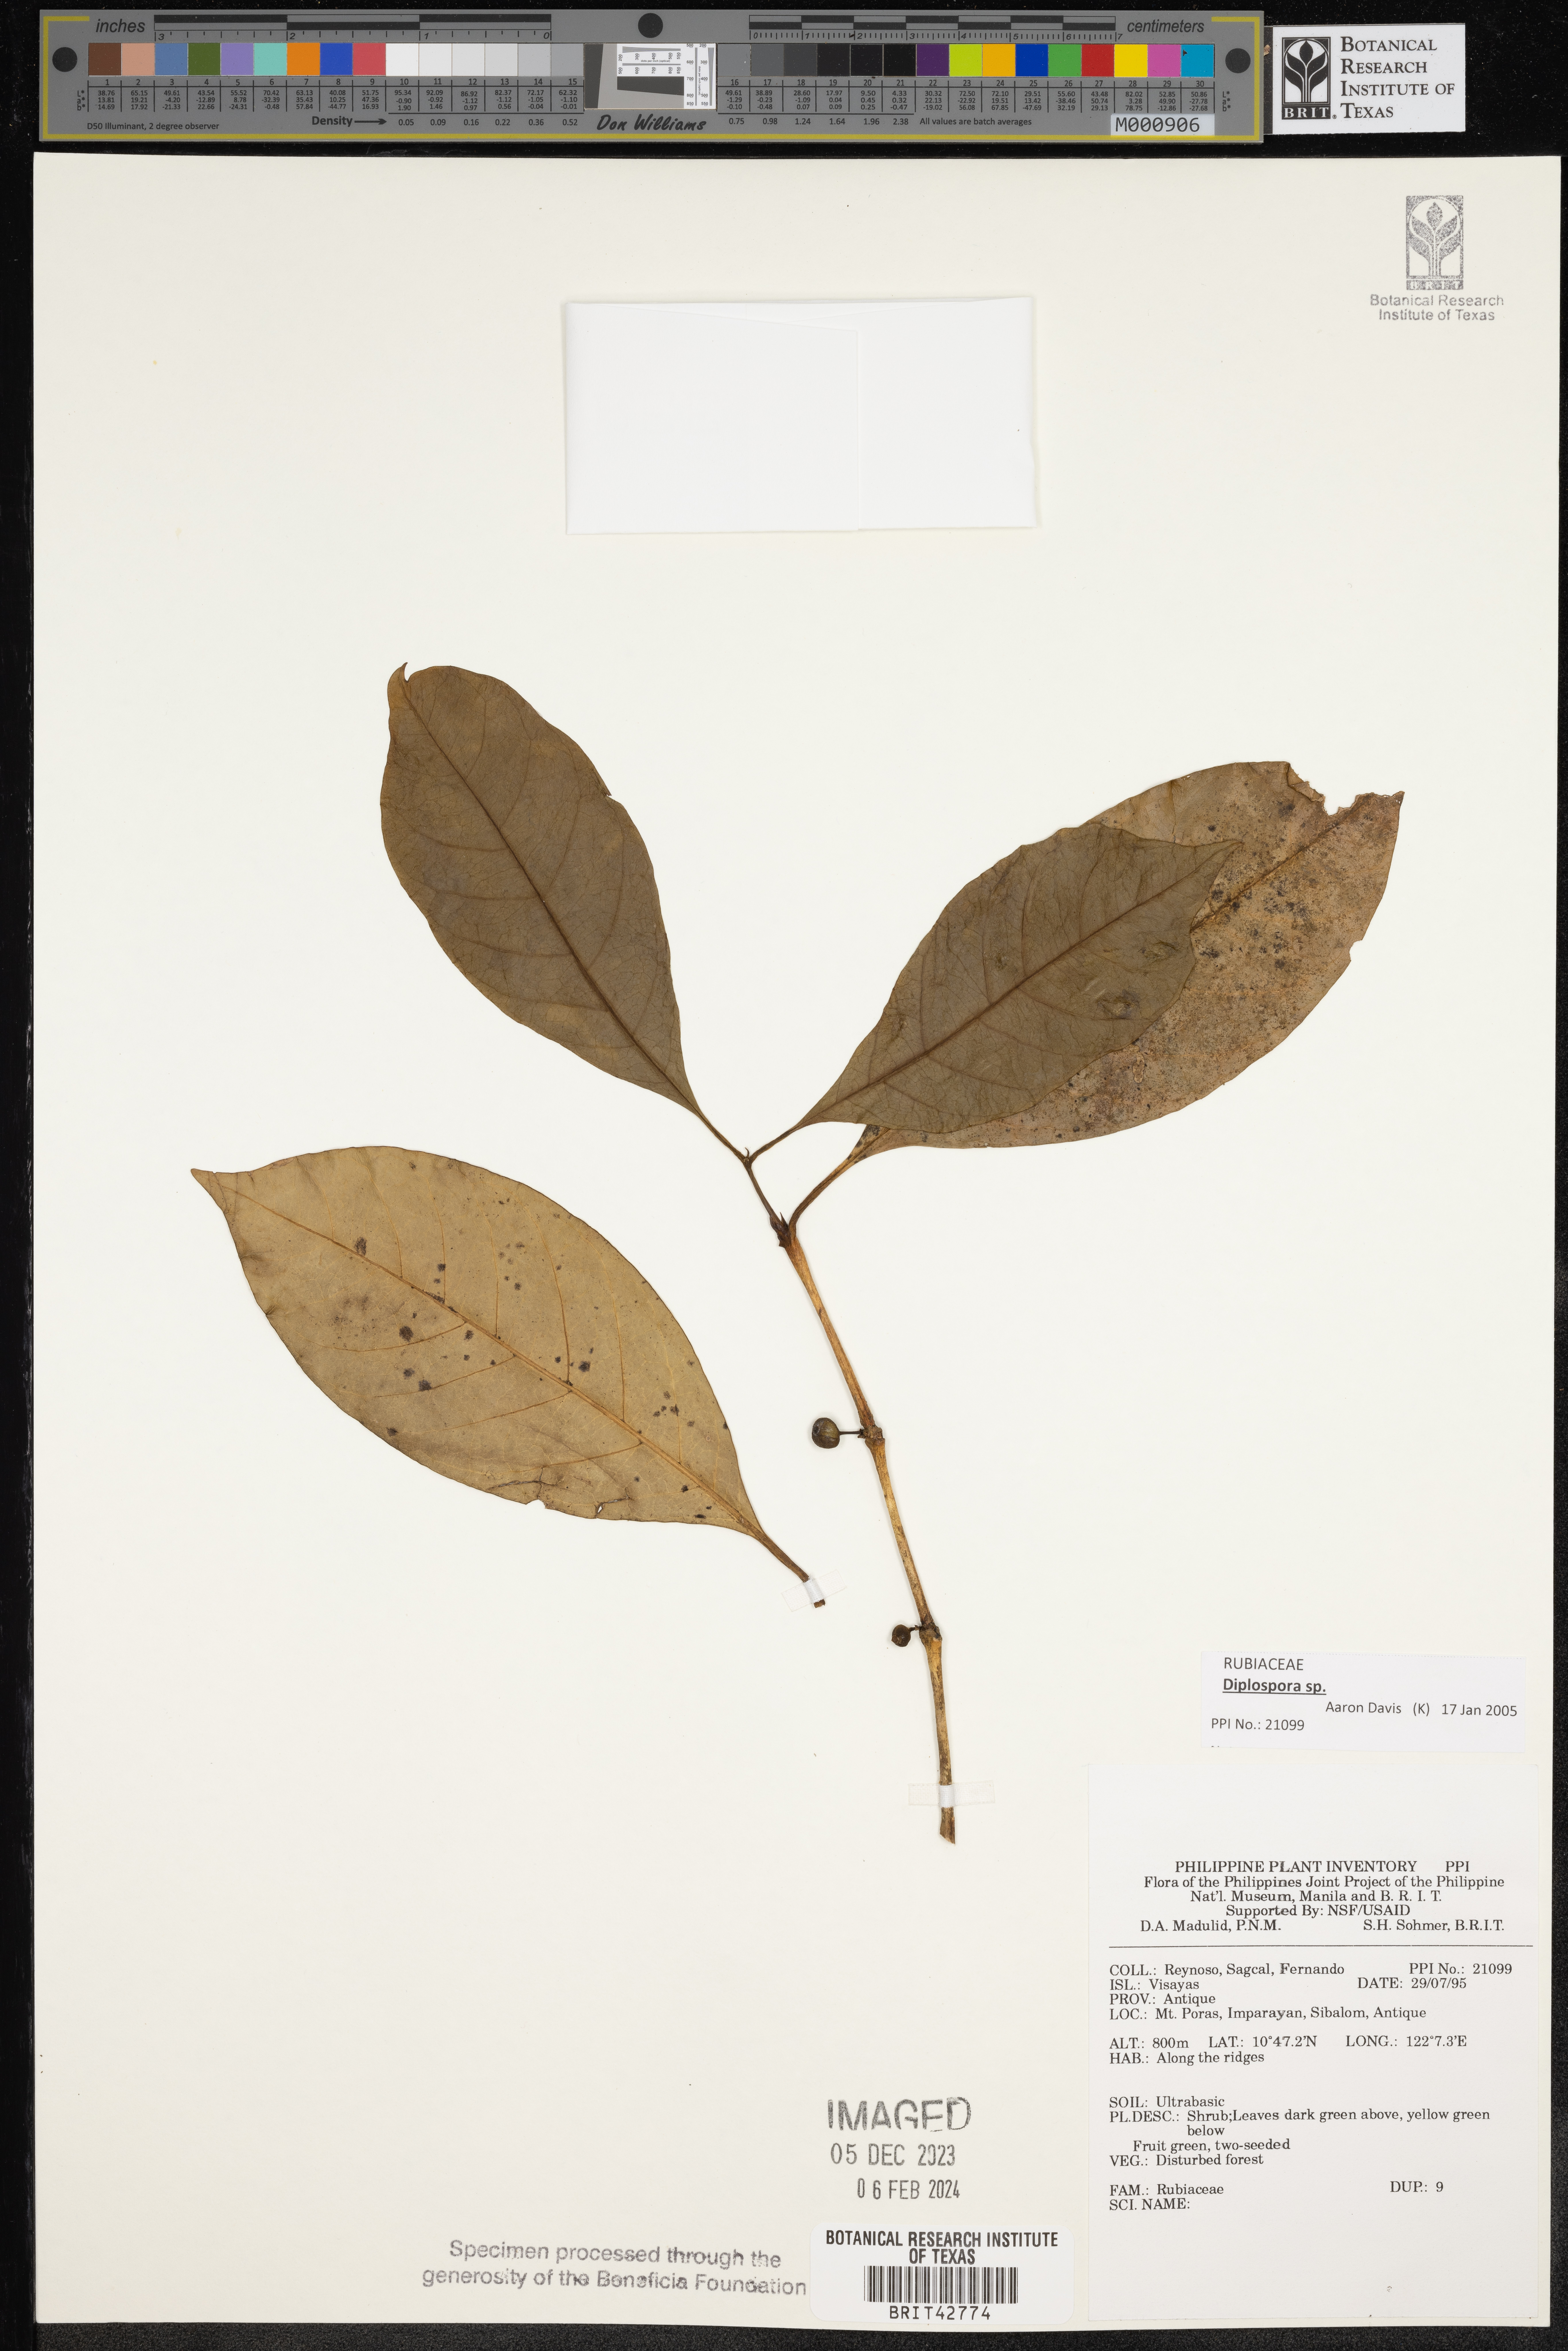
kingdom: Plantae
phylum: Tracheophyta
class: Magnoliopsida
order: Gentianales
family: Rubiaceae
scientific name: Rubiaceae
